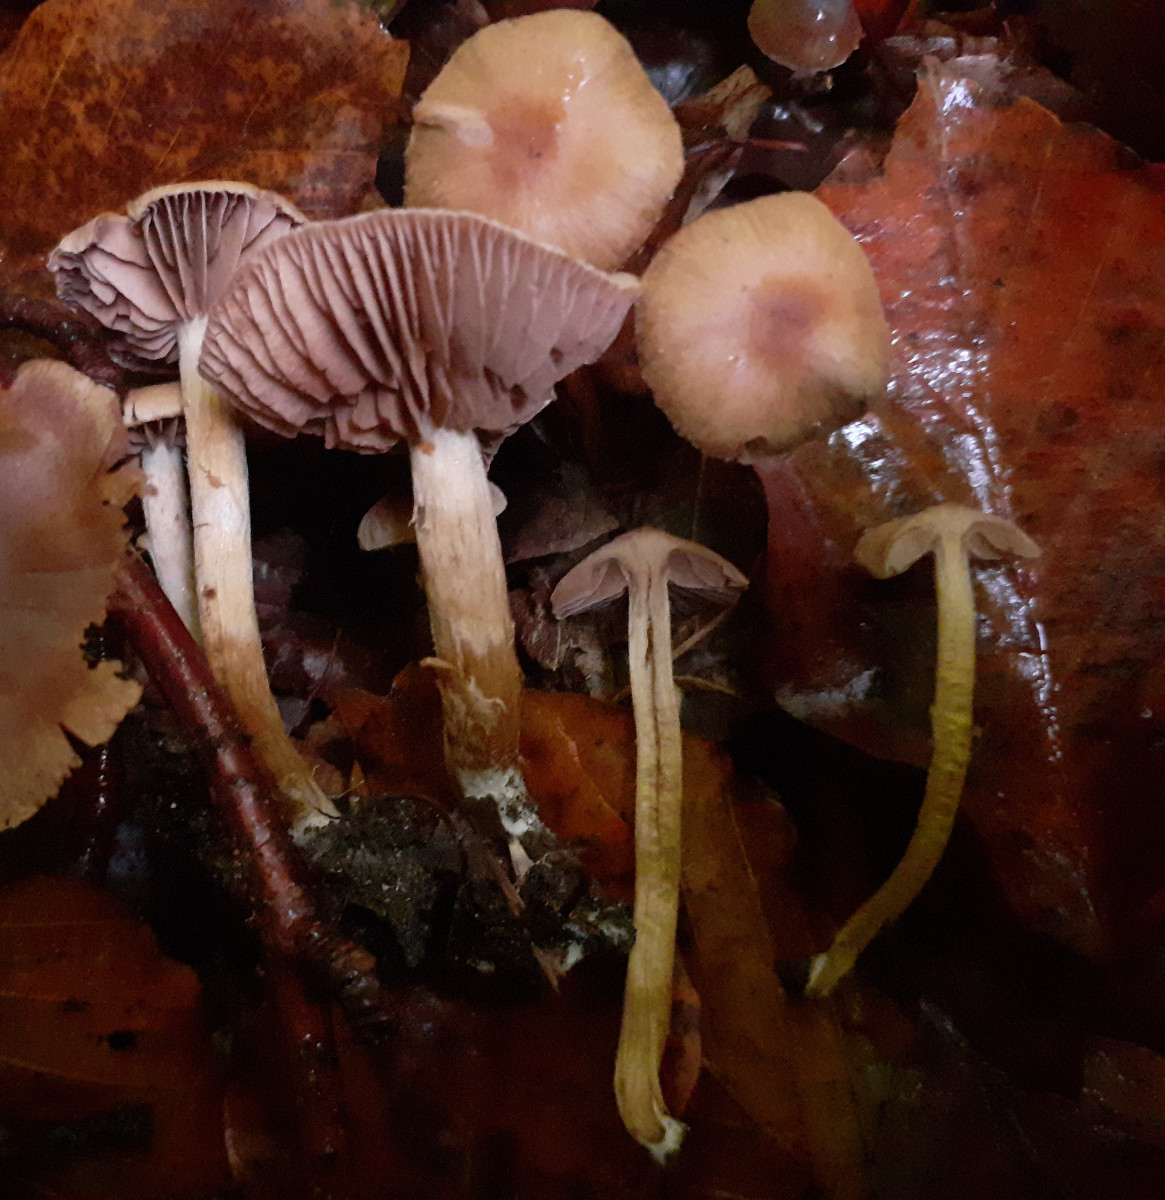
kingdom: Fungi
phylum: Basidiomycota
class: Agaricomycetes
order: Agaricales
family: Cortinariaceae
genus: Cortinarius
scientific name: Cortinarius desertorum
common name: skær slørhat
